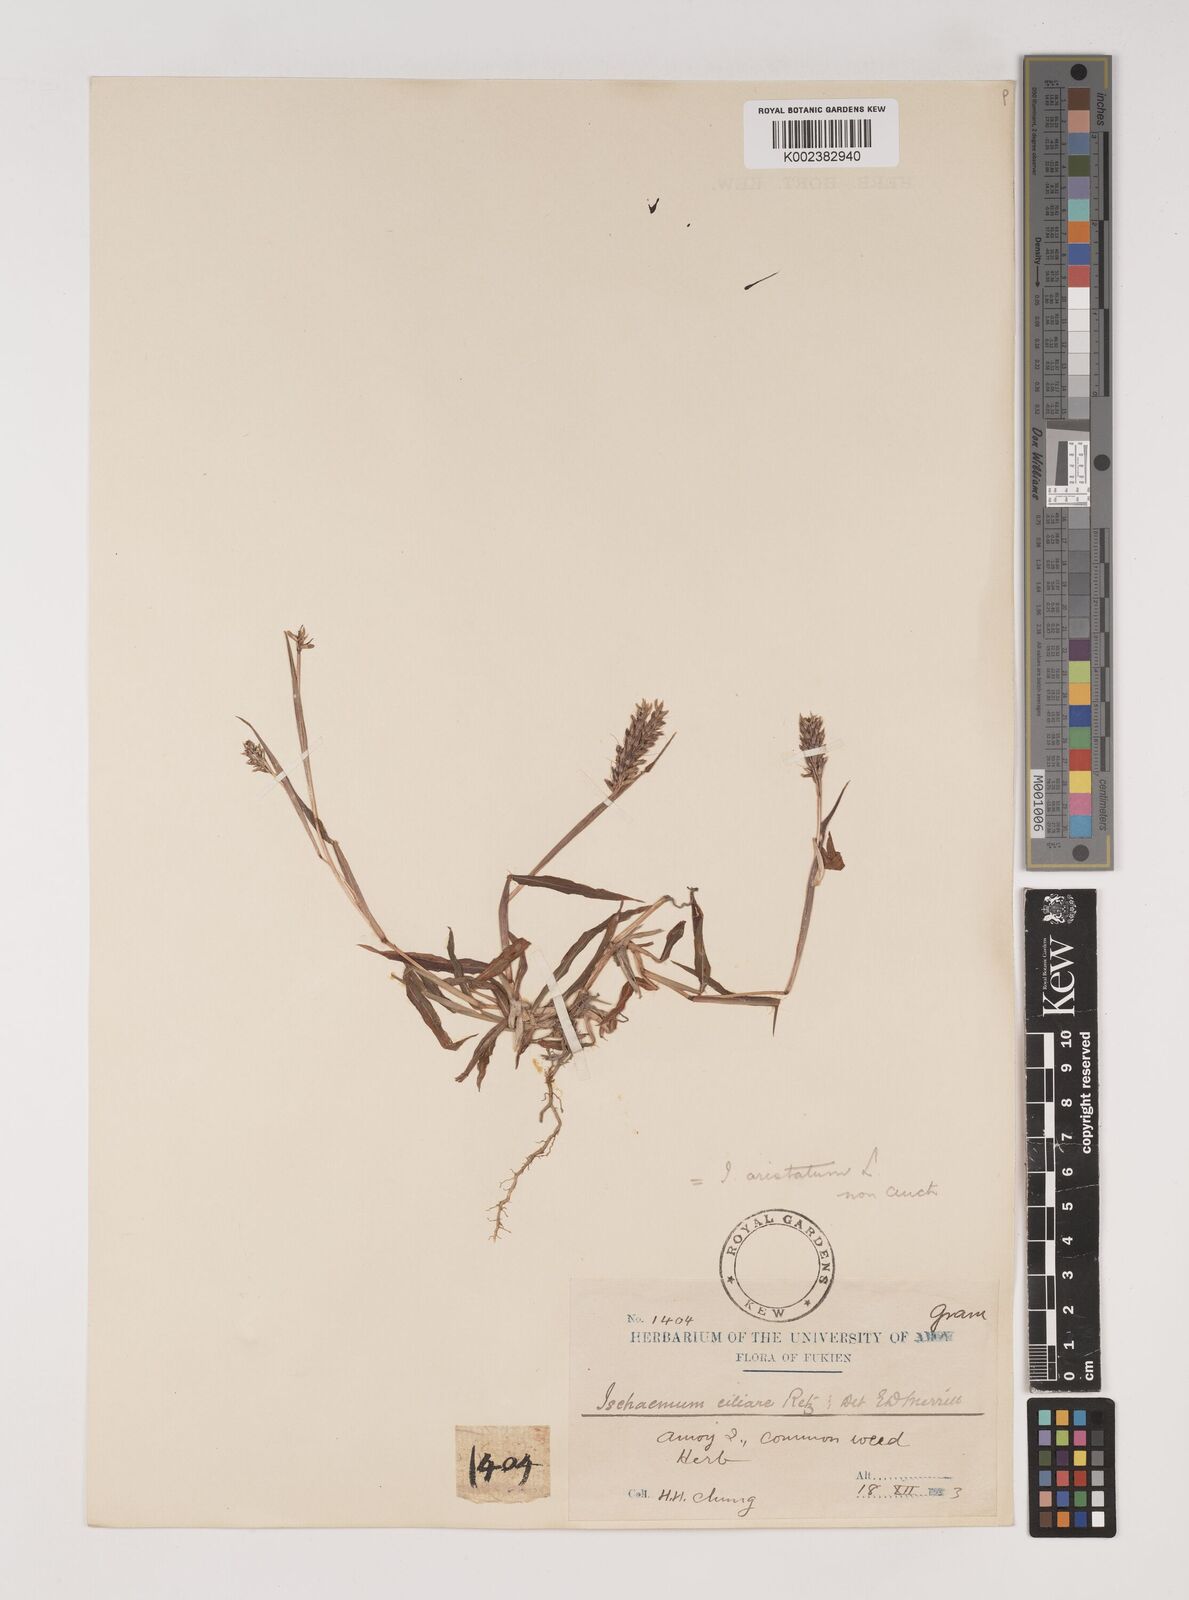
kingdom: Plantae
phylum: Tracheophyta
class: Liliopsida
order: Poales
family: Poaceae
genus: Polytrias
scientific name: Polytrias indica
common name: Indian murainagrass
